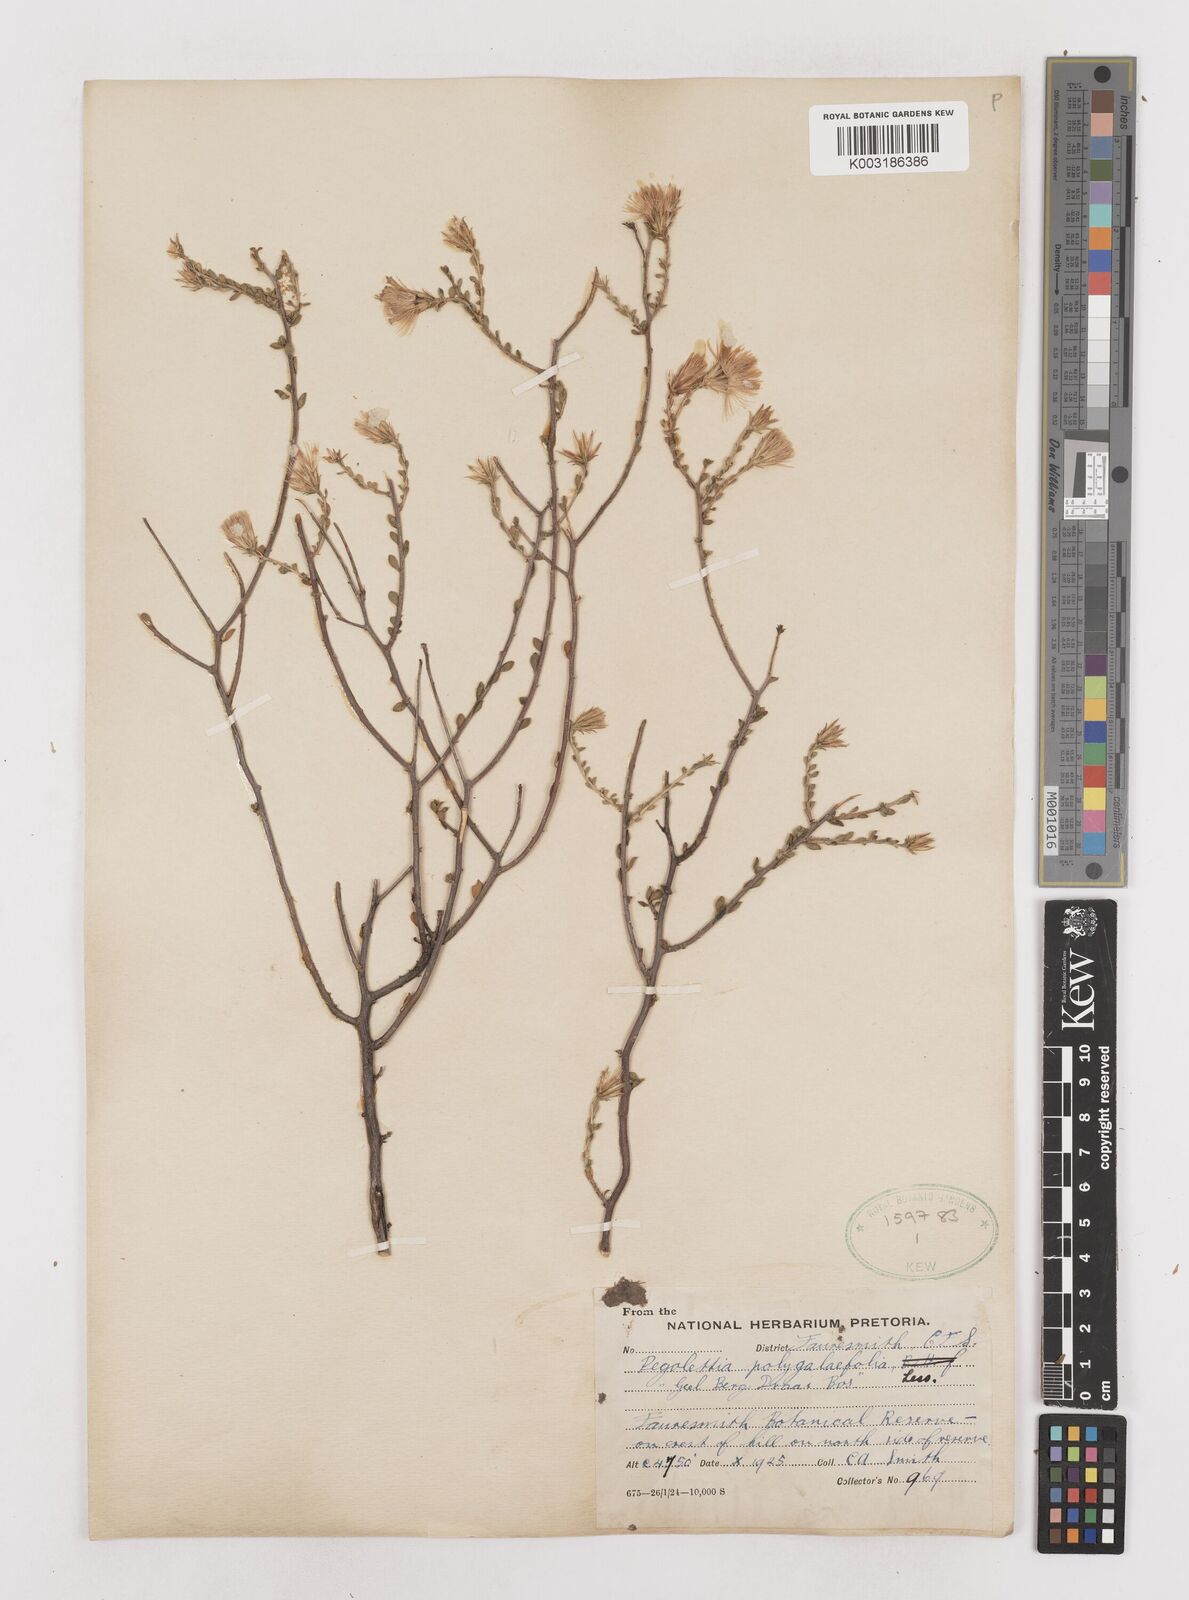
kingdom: Plantae
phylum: Tracheophyta
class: Magnoliopsida
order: Asterales
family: Asteraceae
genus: Pegolettia
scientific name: Pegolettia retrofracta
